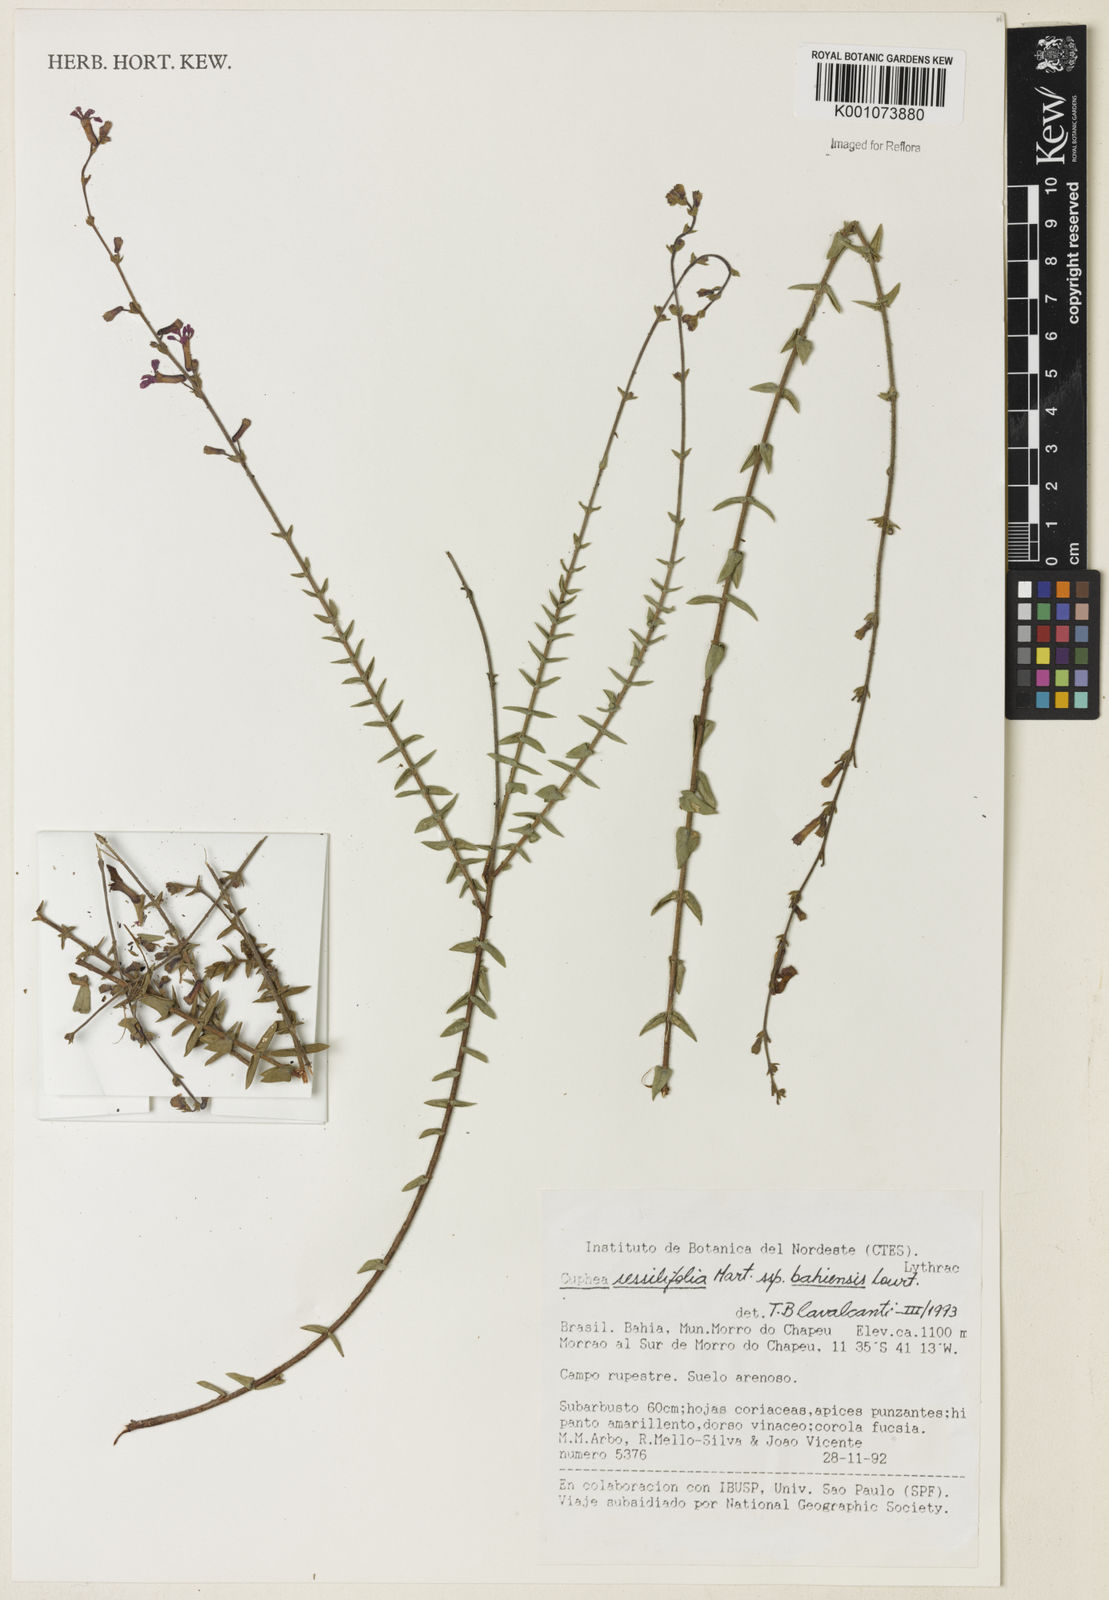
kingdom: Plantae
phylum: Tracheophyta
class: Magnoliopsida
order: Myrtales
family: Lythraceae
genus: Cuphea
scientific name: Cuphea bahiensis
